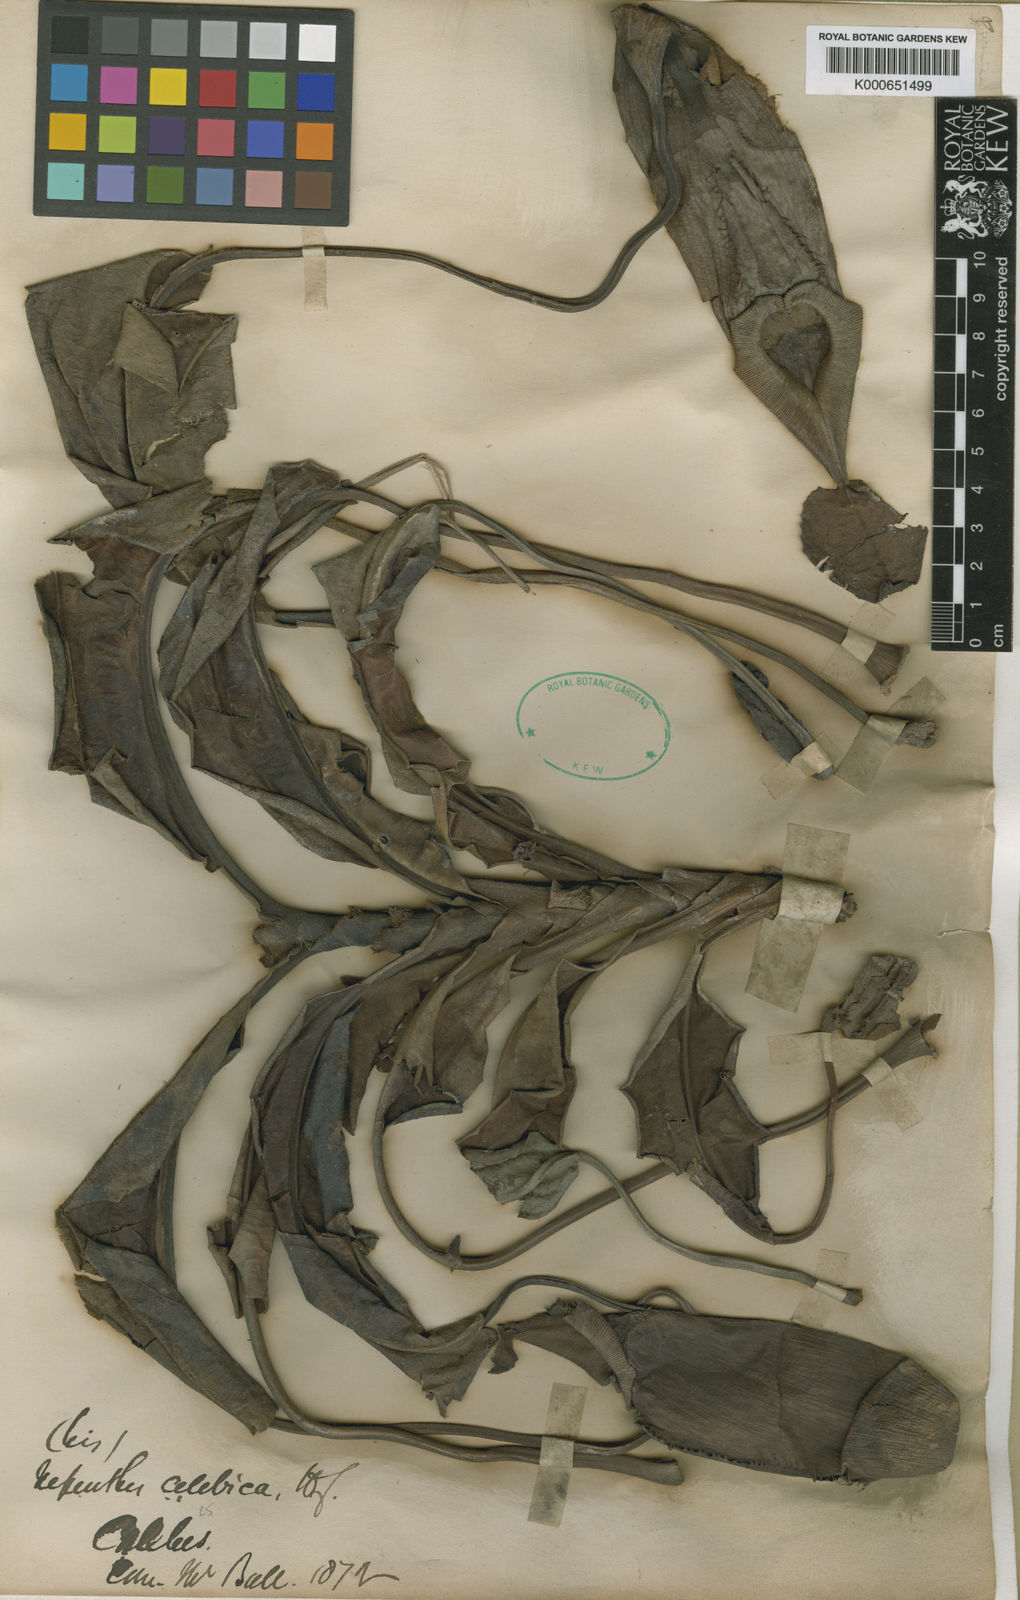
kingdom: Plantae
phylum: Tracheophyta
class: Magnoliopsida
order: Caryophyllales
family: Nepenthaceae
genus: Nepenthes
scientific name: Nepenthes maxima
